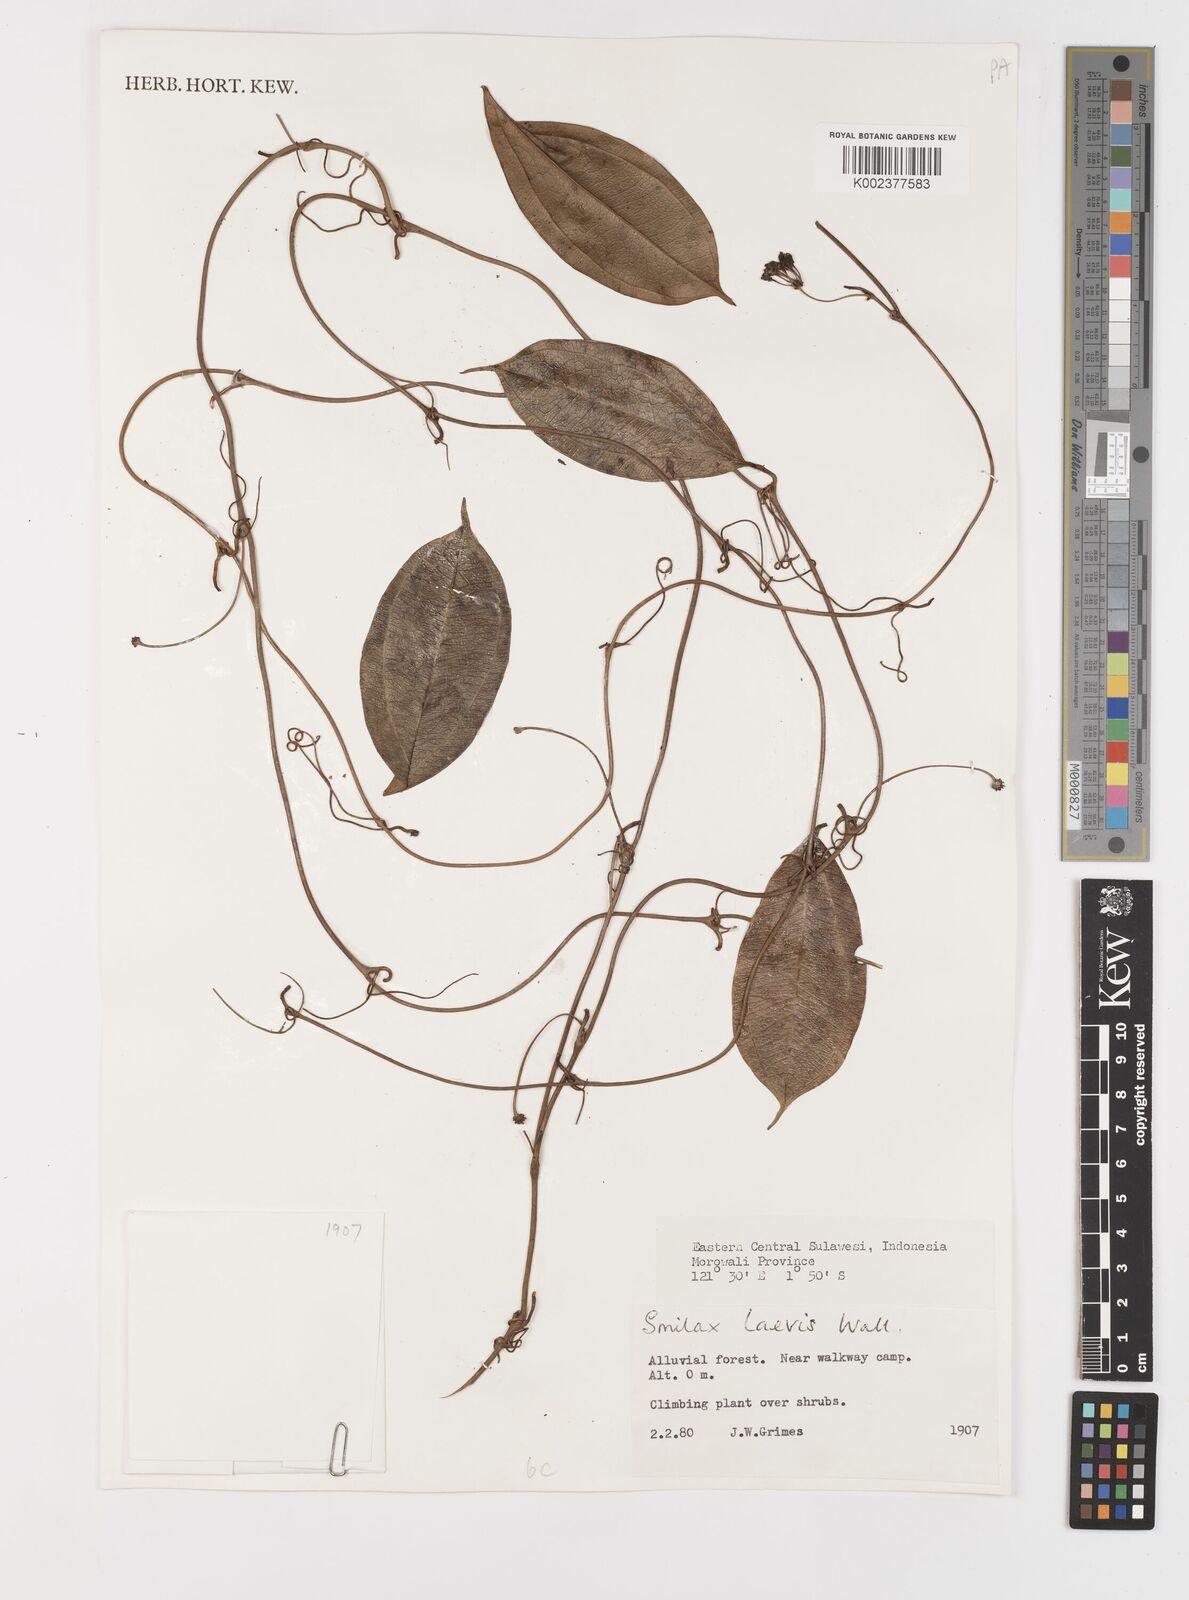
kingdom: Plantae
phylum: Tracheophyta
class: Liliopsida
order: Liliales
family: Smilacaceae
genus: Smilax
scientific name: Smilax laevis
